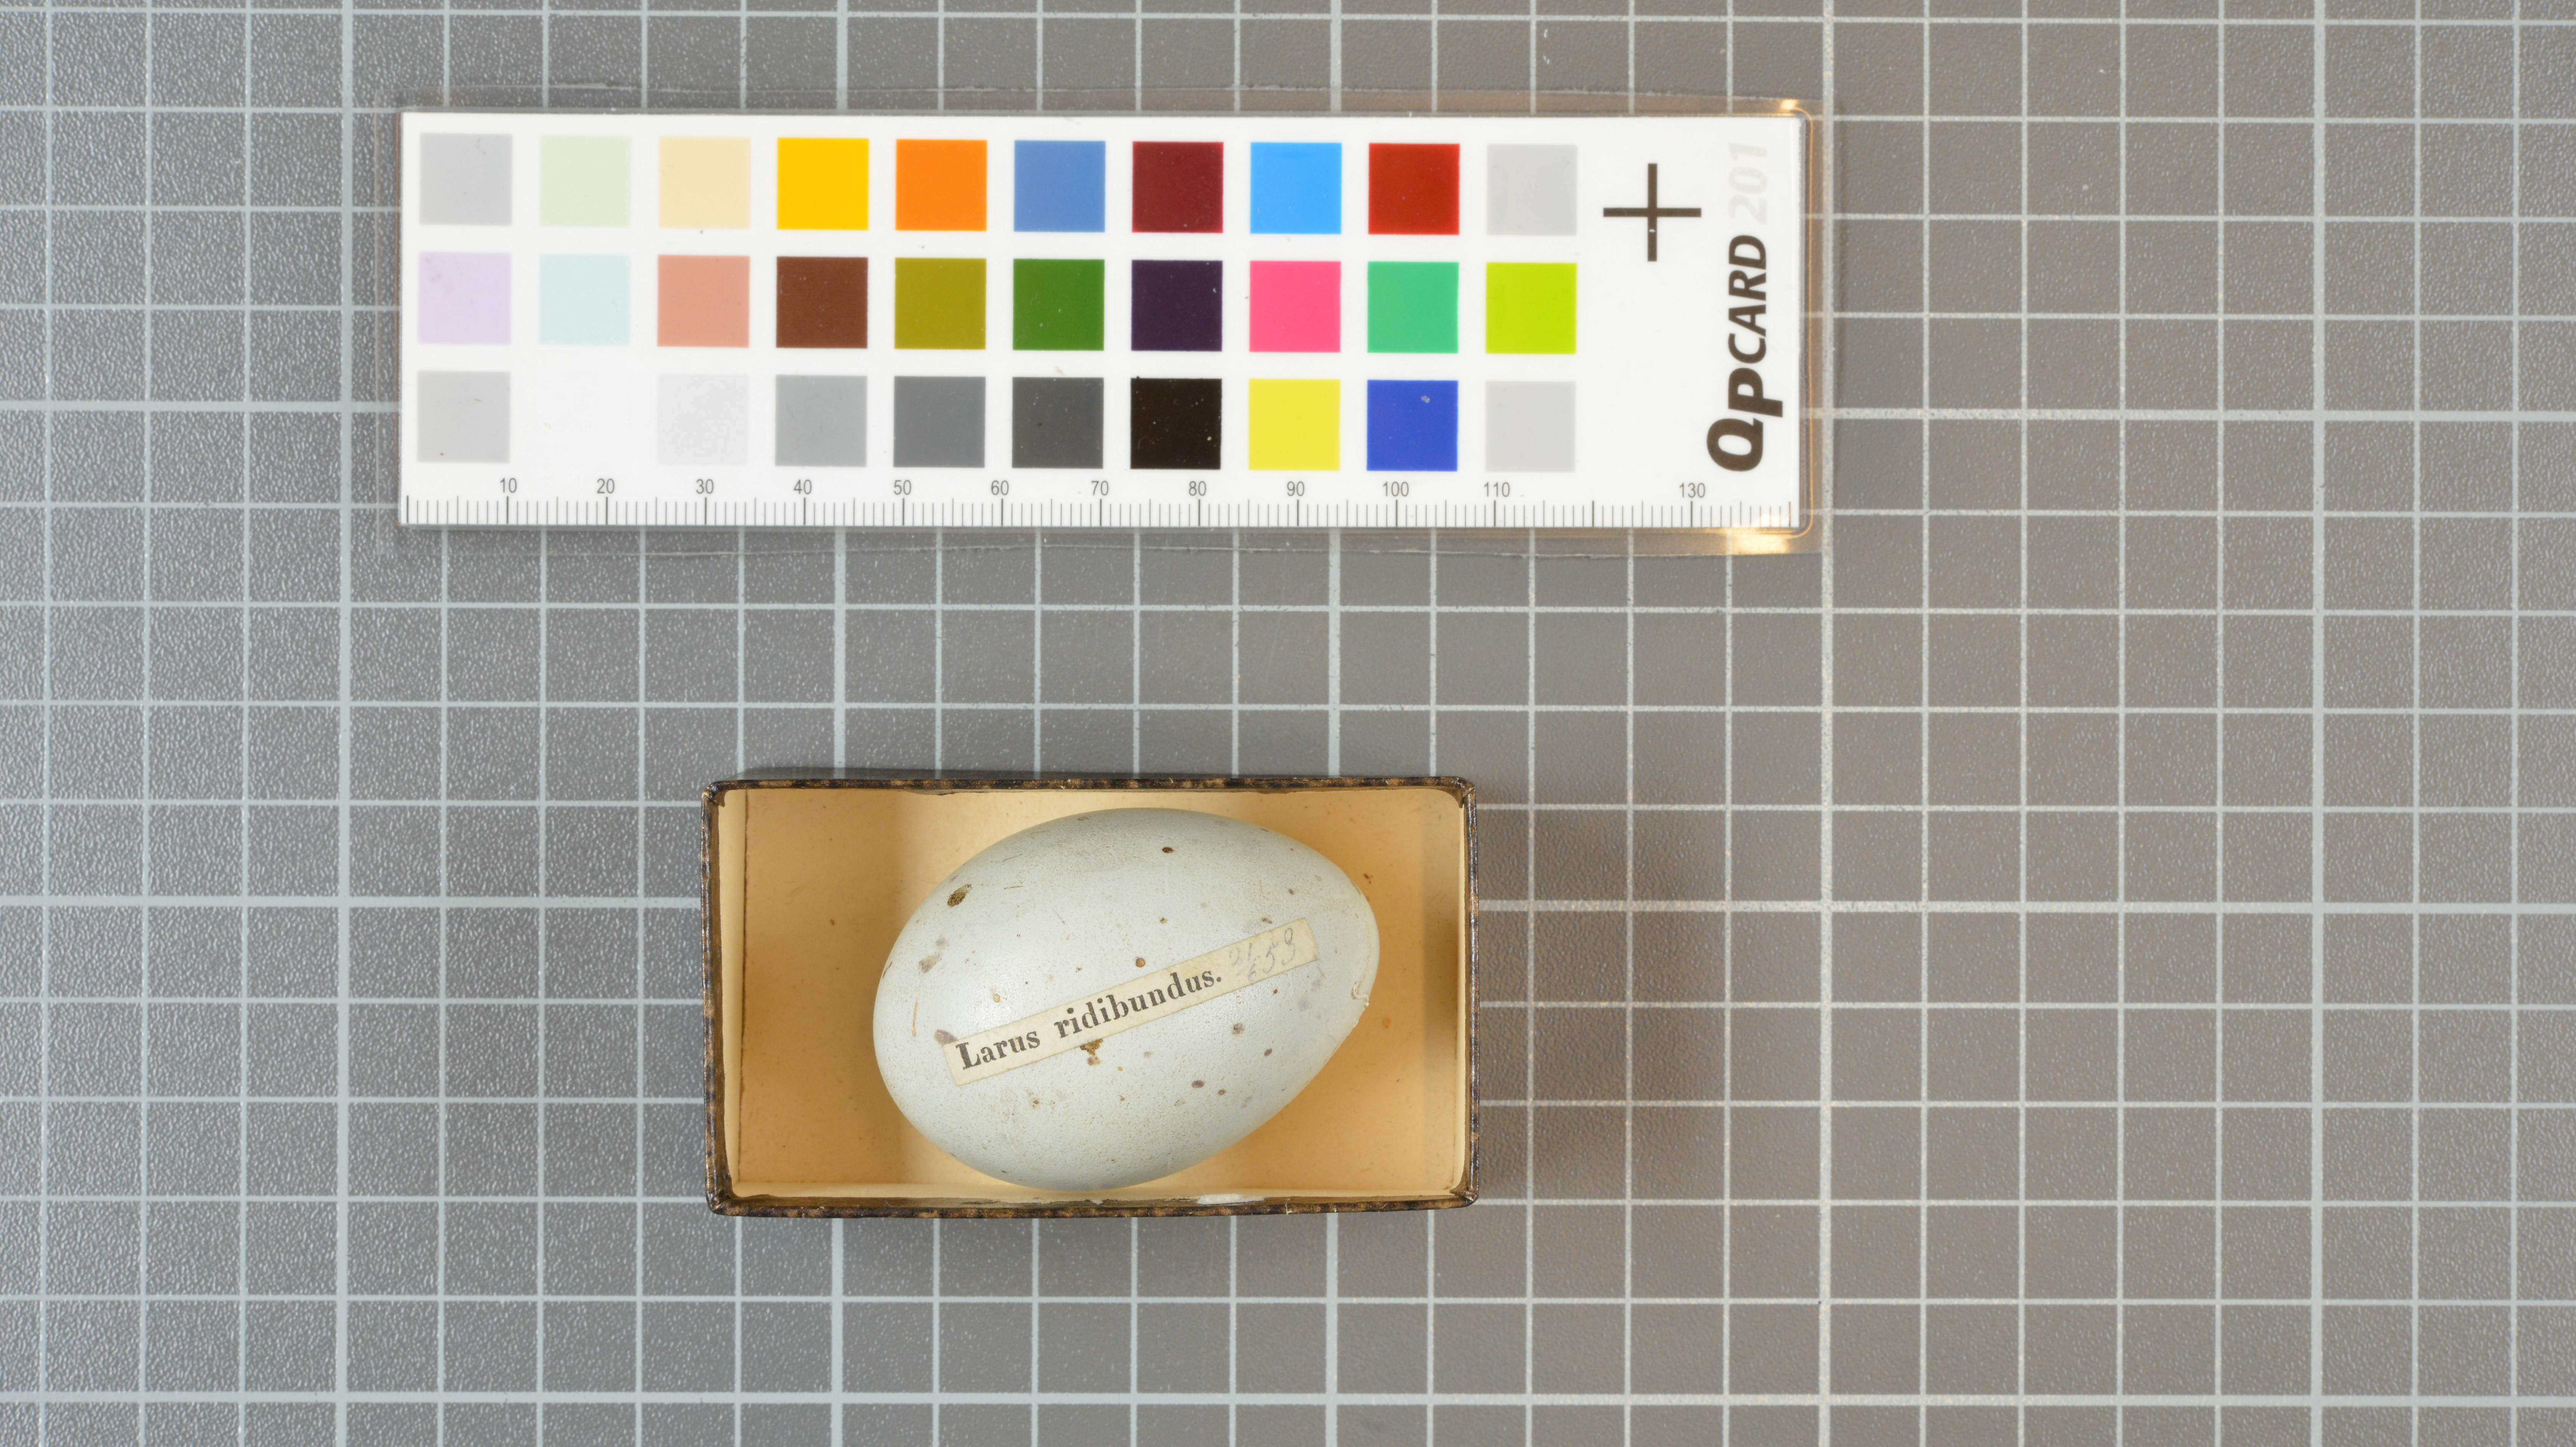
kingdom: Animalia
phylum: Chordata
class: Aves
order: Charadriiformes
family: Laridae
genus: Chroicocephalus
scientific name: Chroicocephalus ridibundus
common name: Black-headed gull
